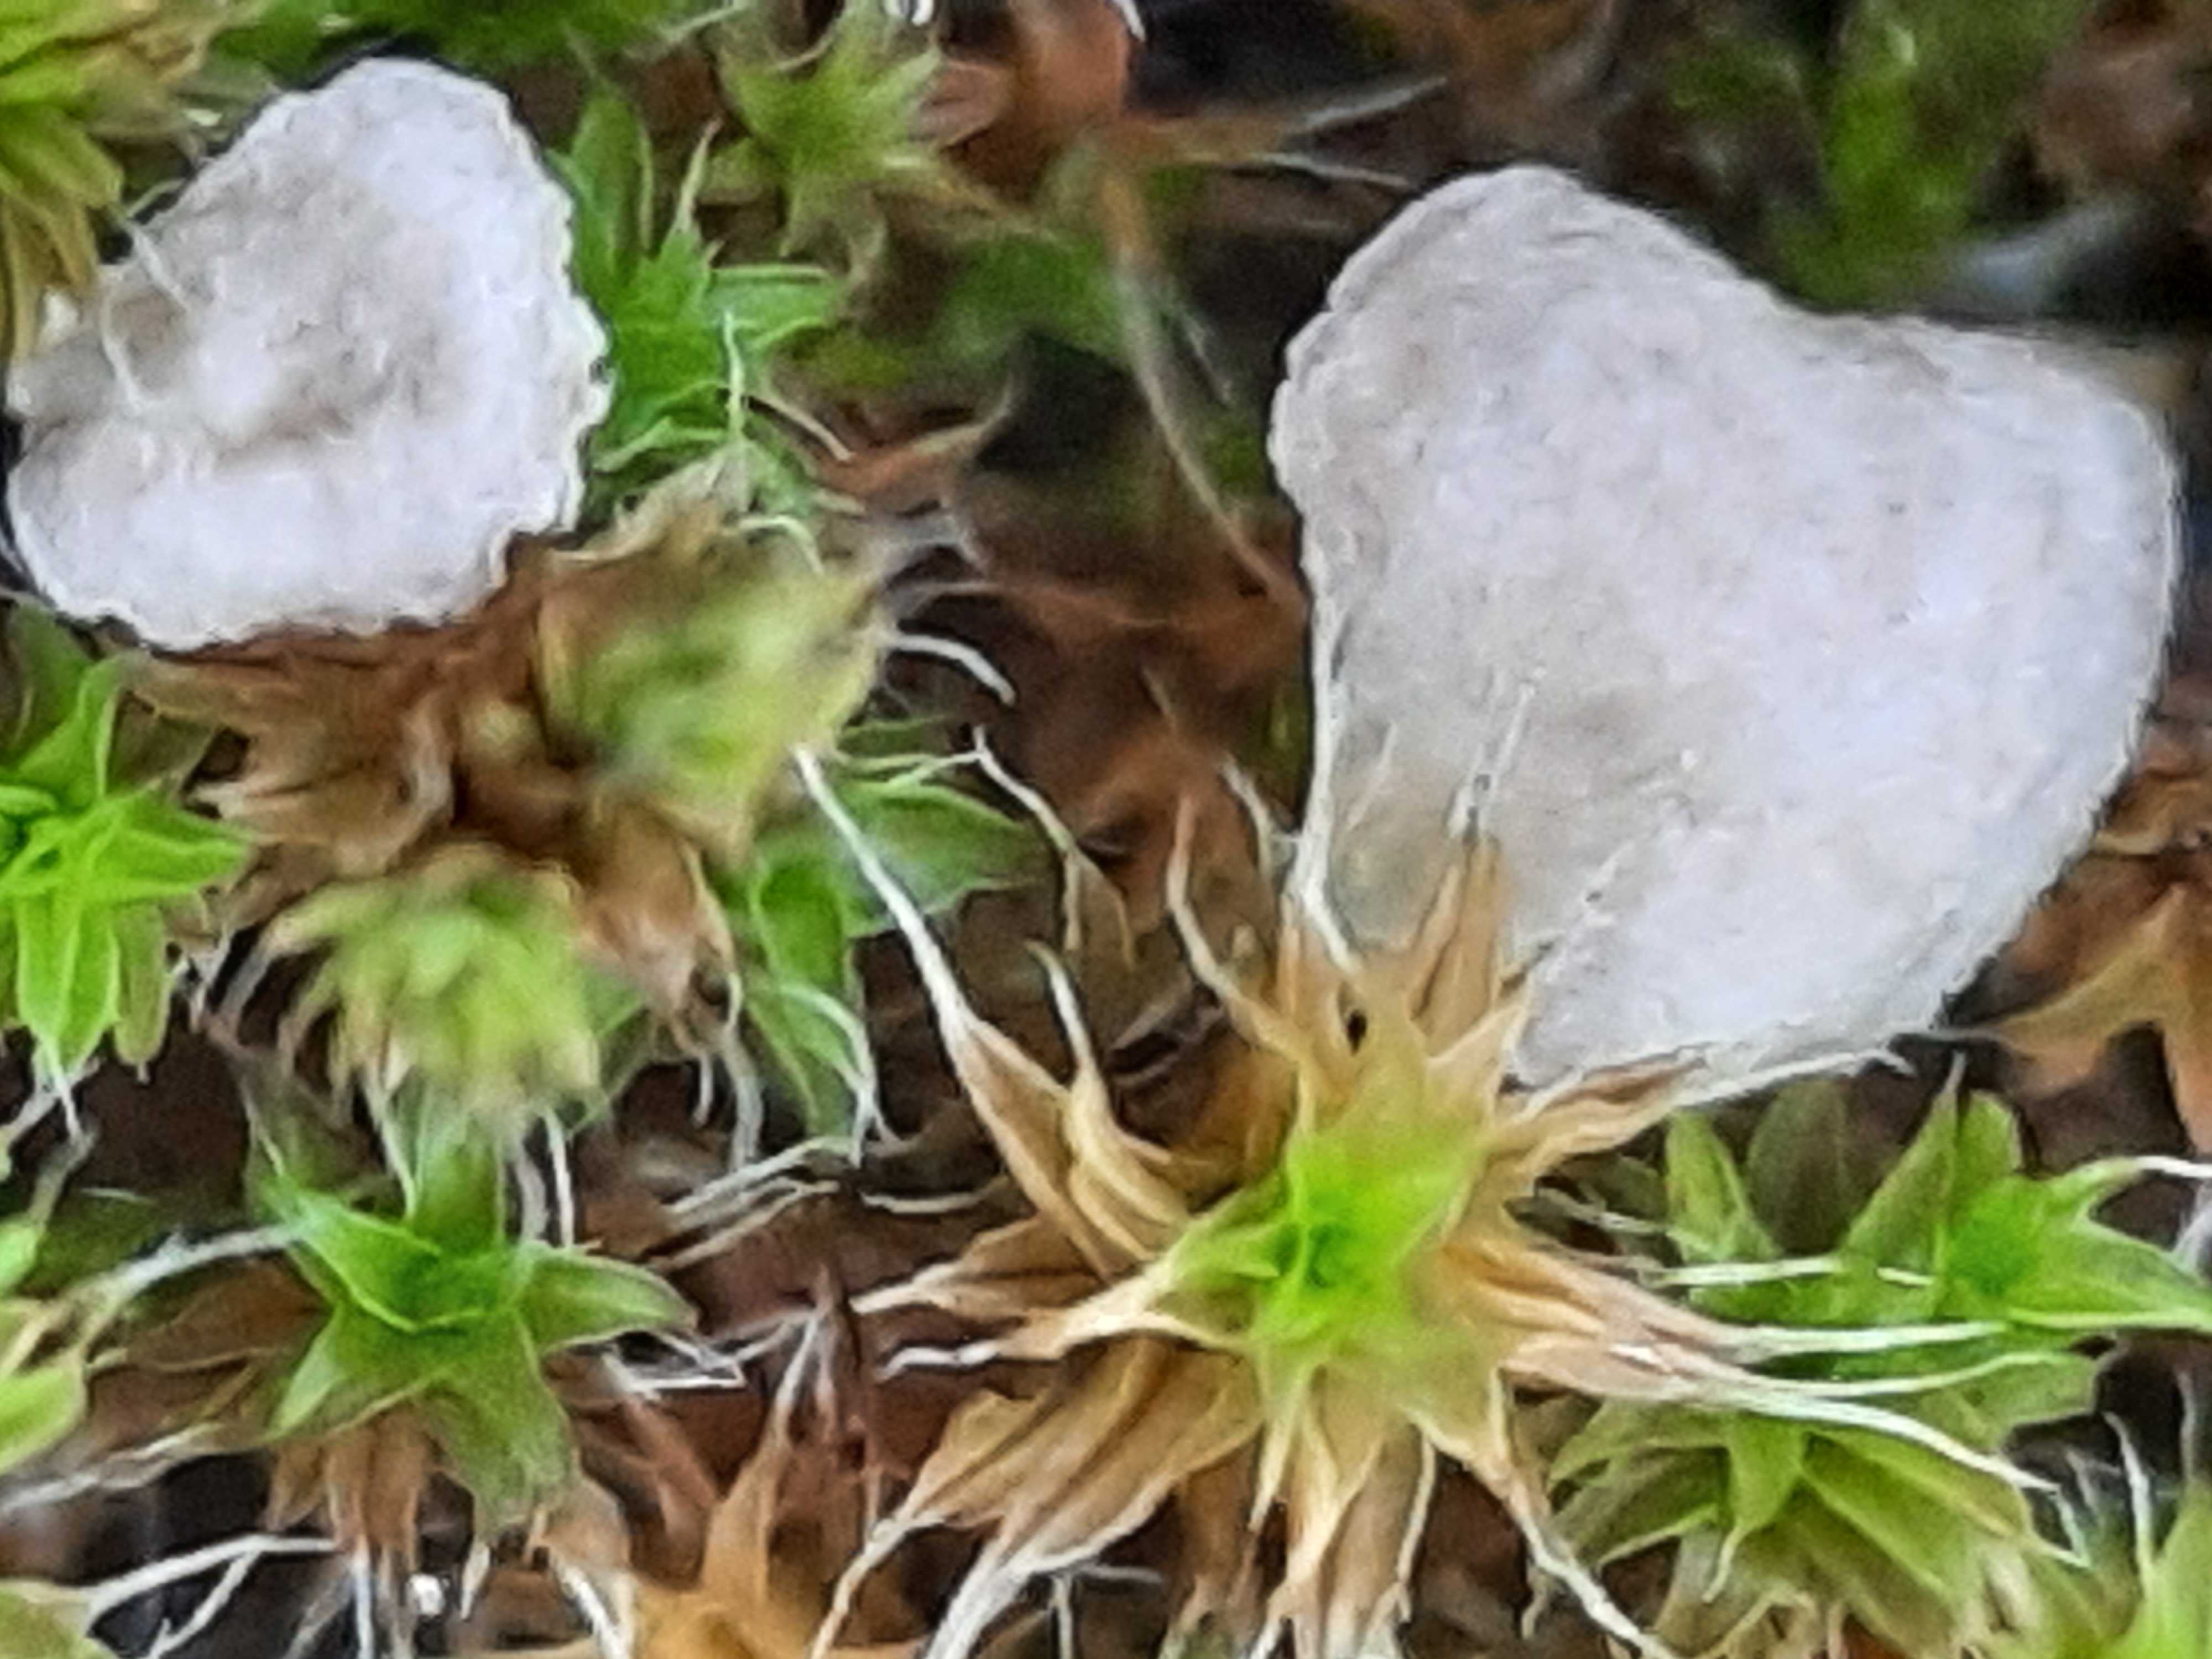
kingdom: Fungi
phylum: Basidiomycota
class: Agaricomycetes
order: Agaricales
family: Hygrophoraceae
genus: Arrhenia
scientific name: Arrhenia spathulata
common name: skæv fontænehat
